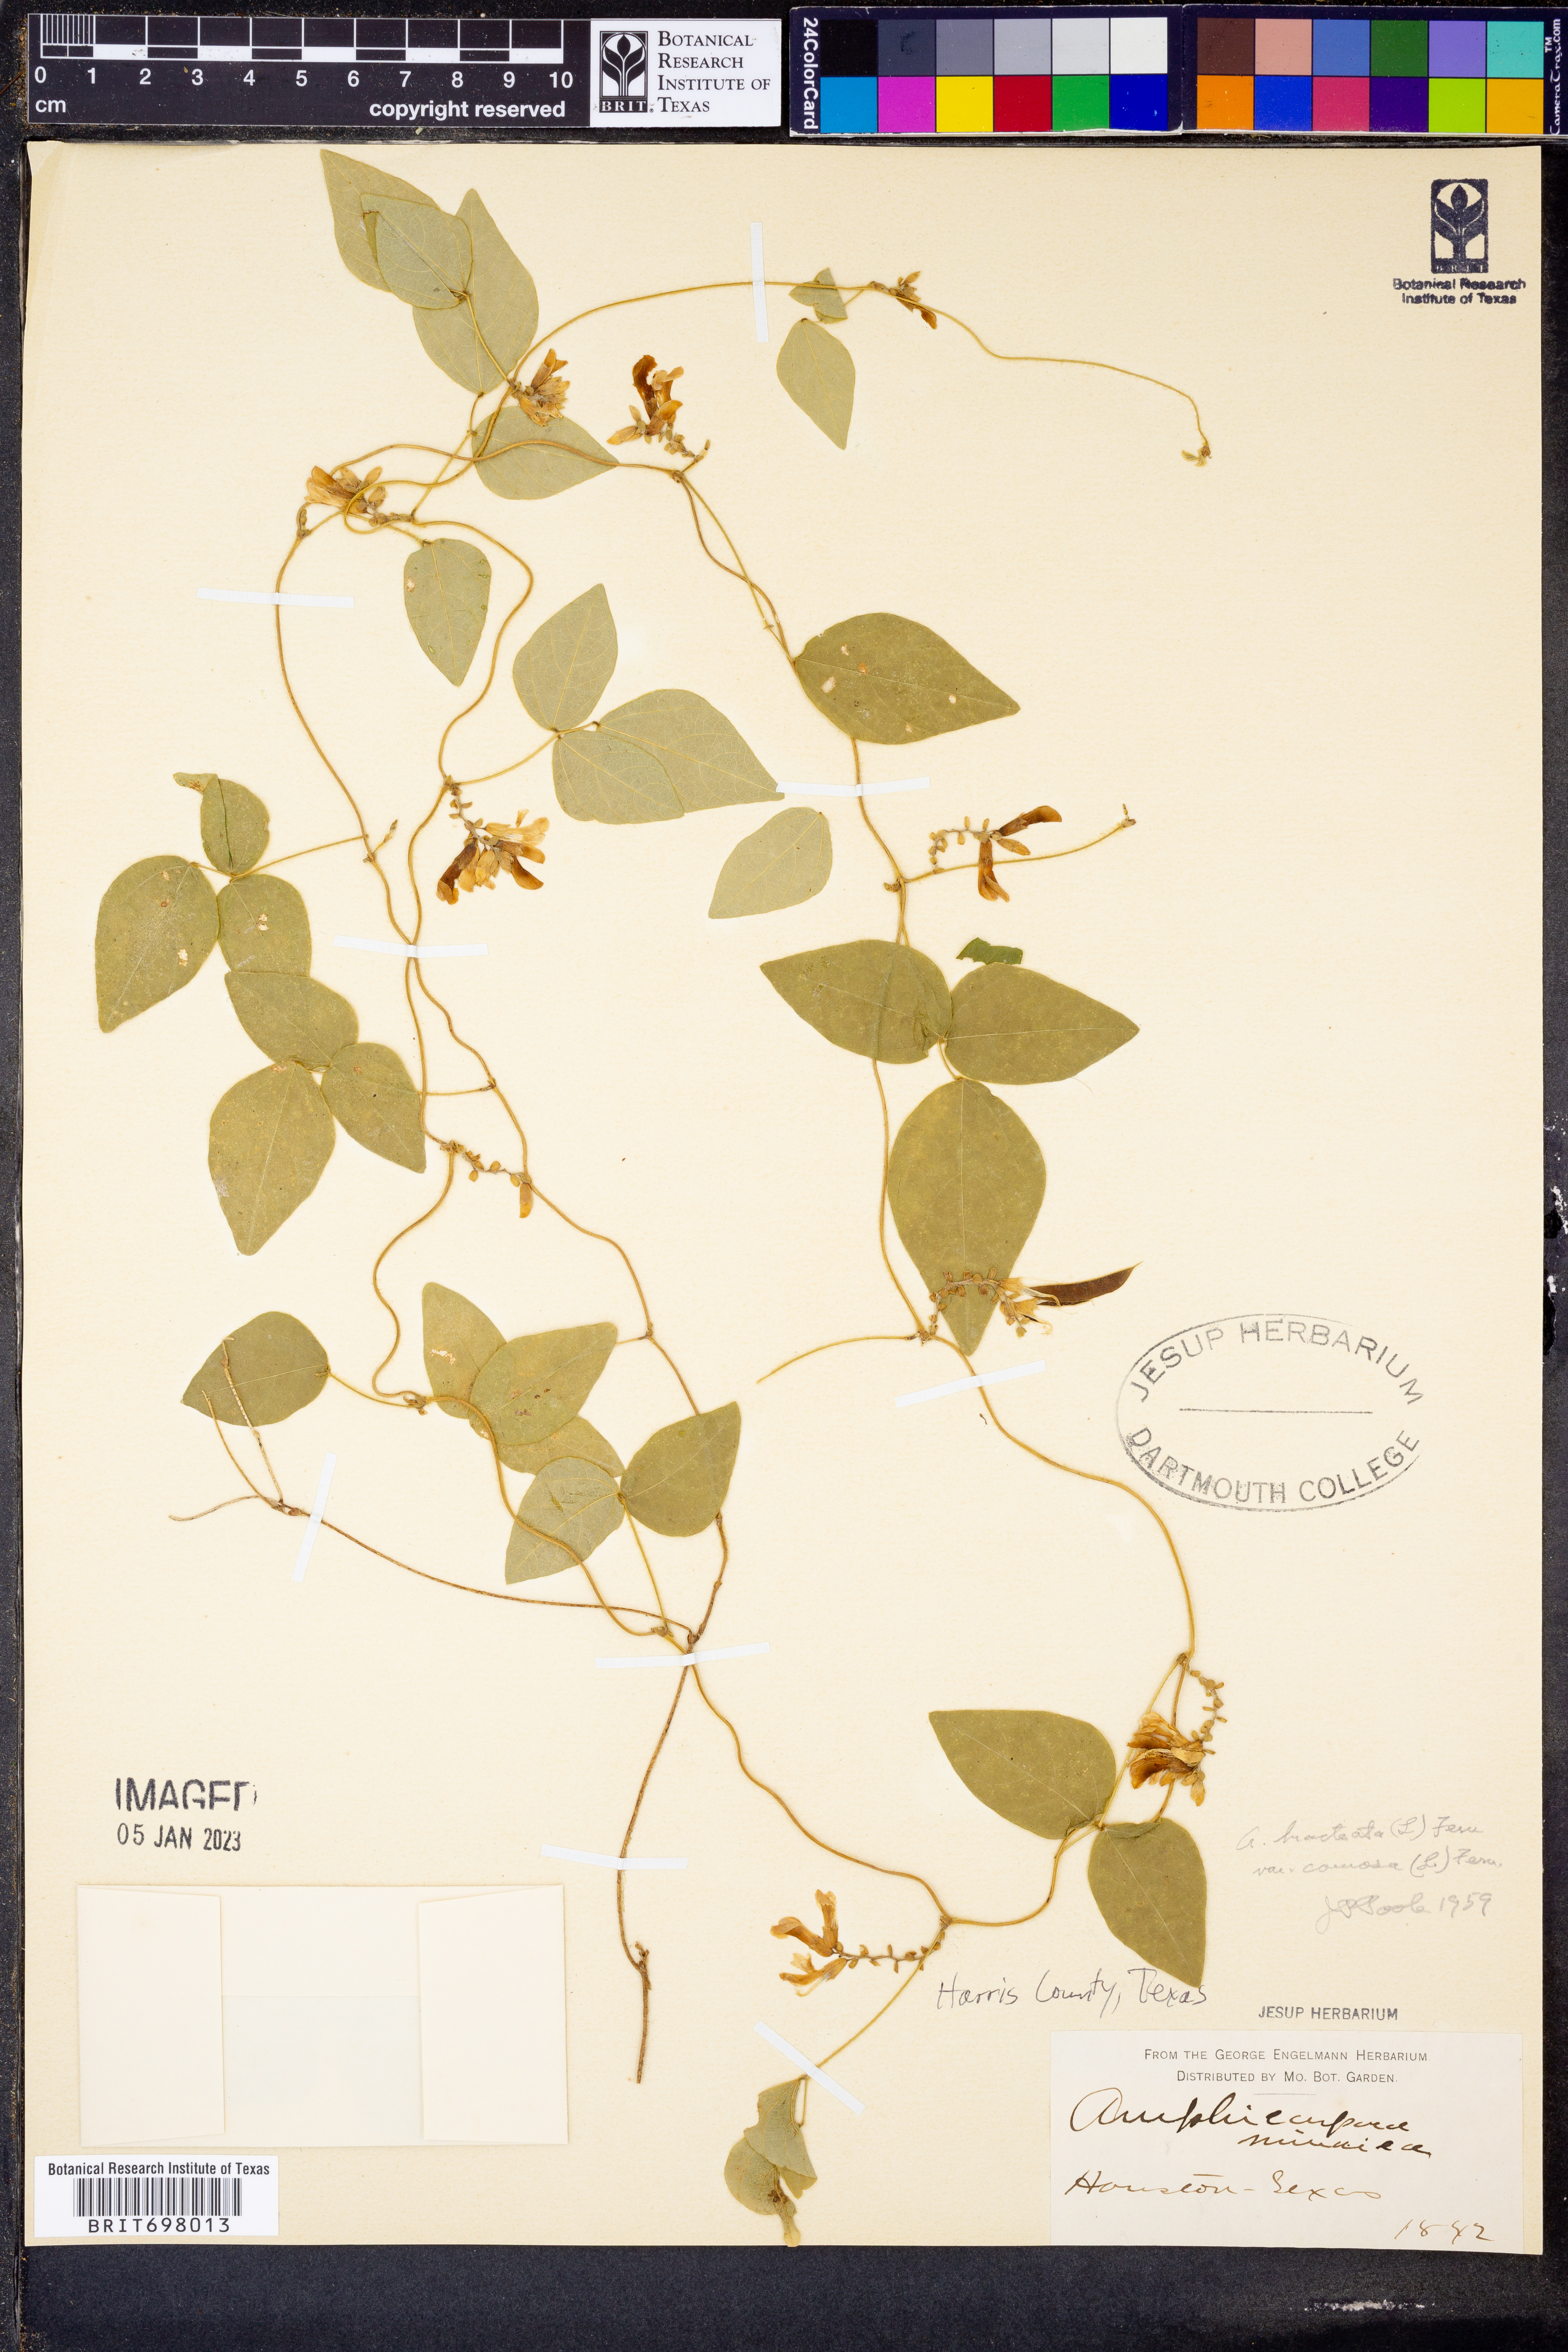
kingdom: Plantae
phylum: Tracheophyta
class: Magnoliopsida
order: Fabales
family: Fabaceae
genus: Amphicarpaea
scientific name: Amphicarpaea bracteata
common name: American hog peanut
